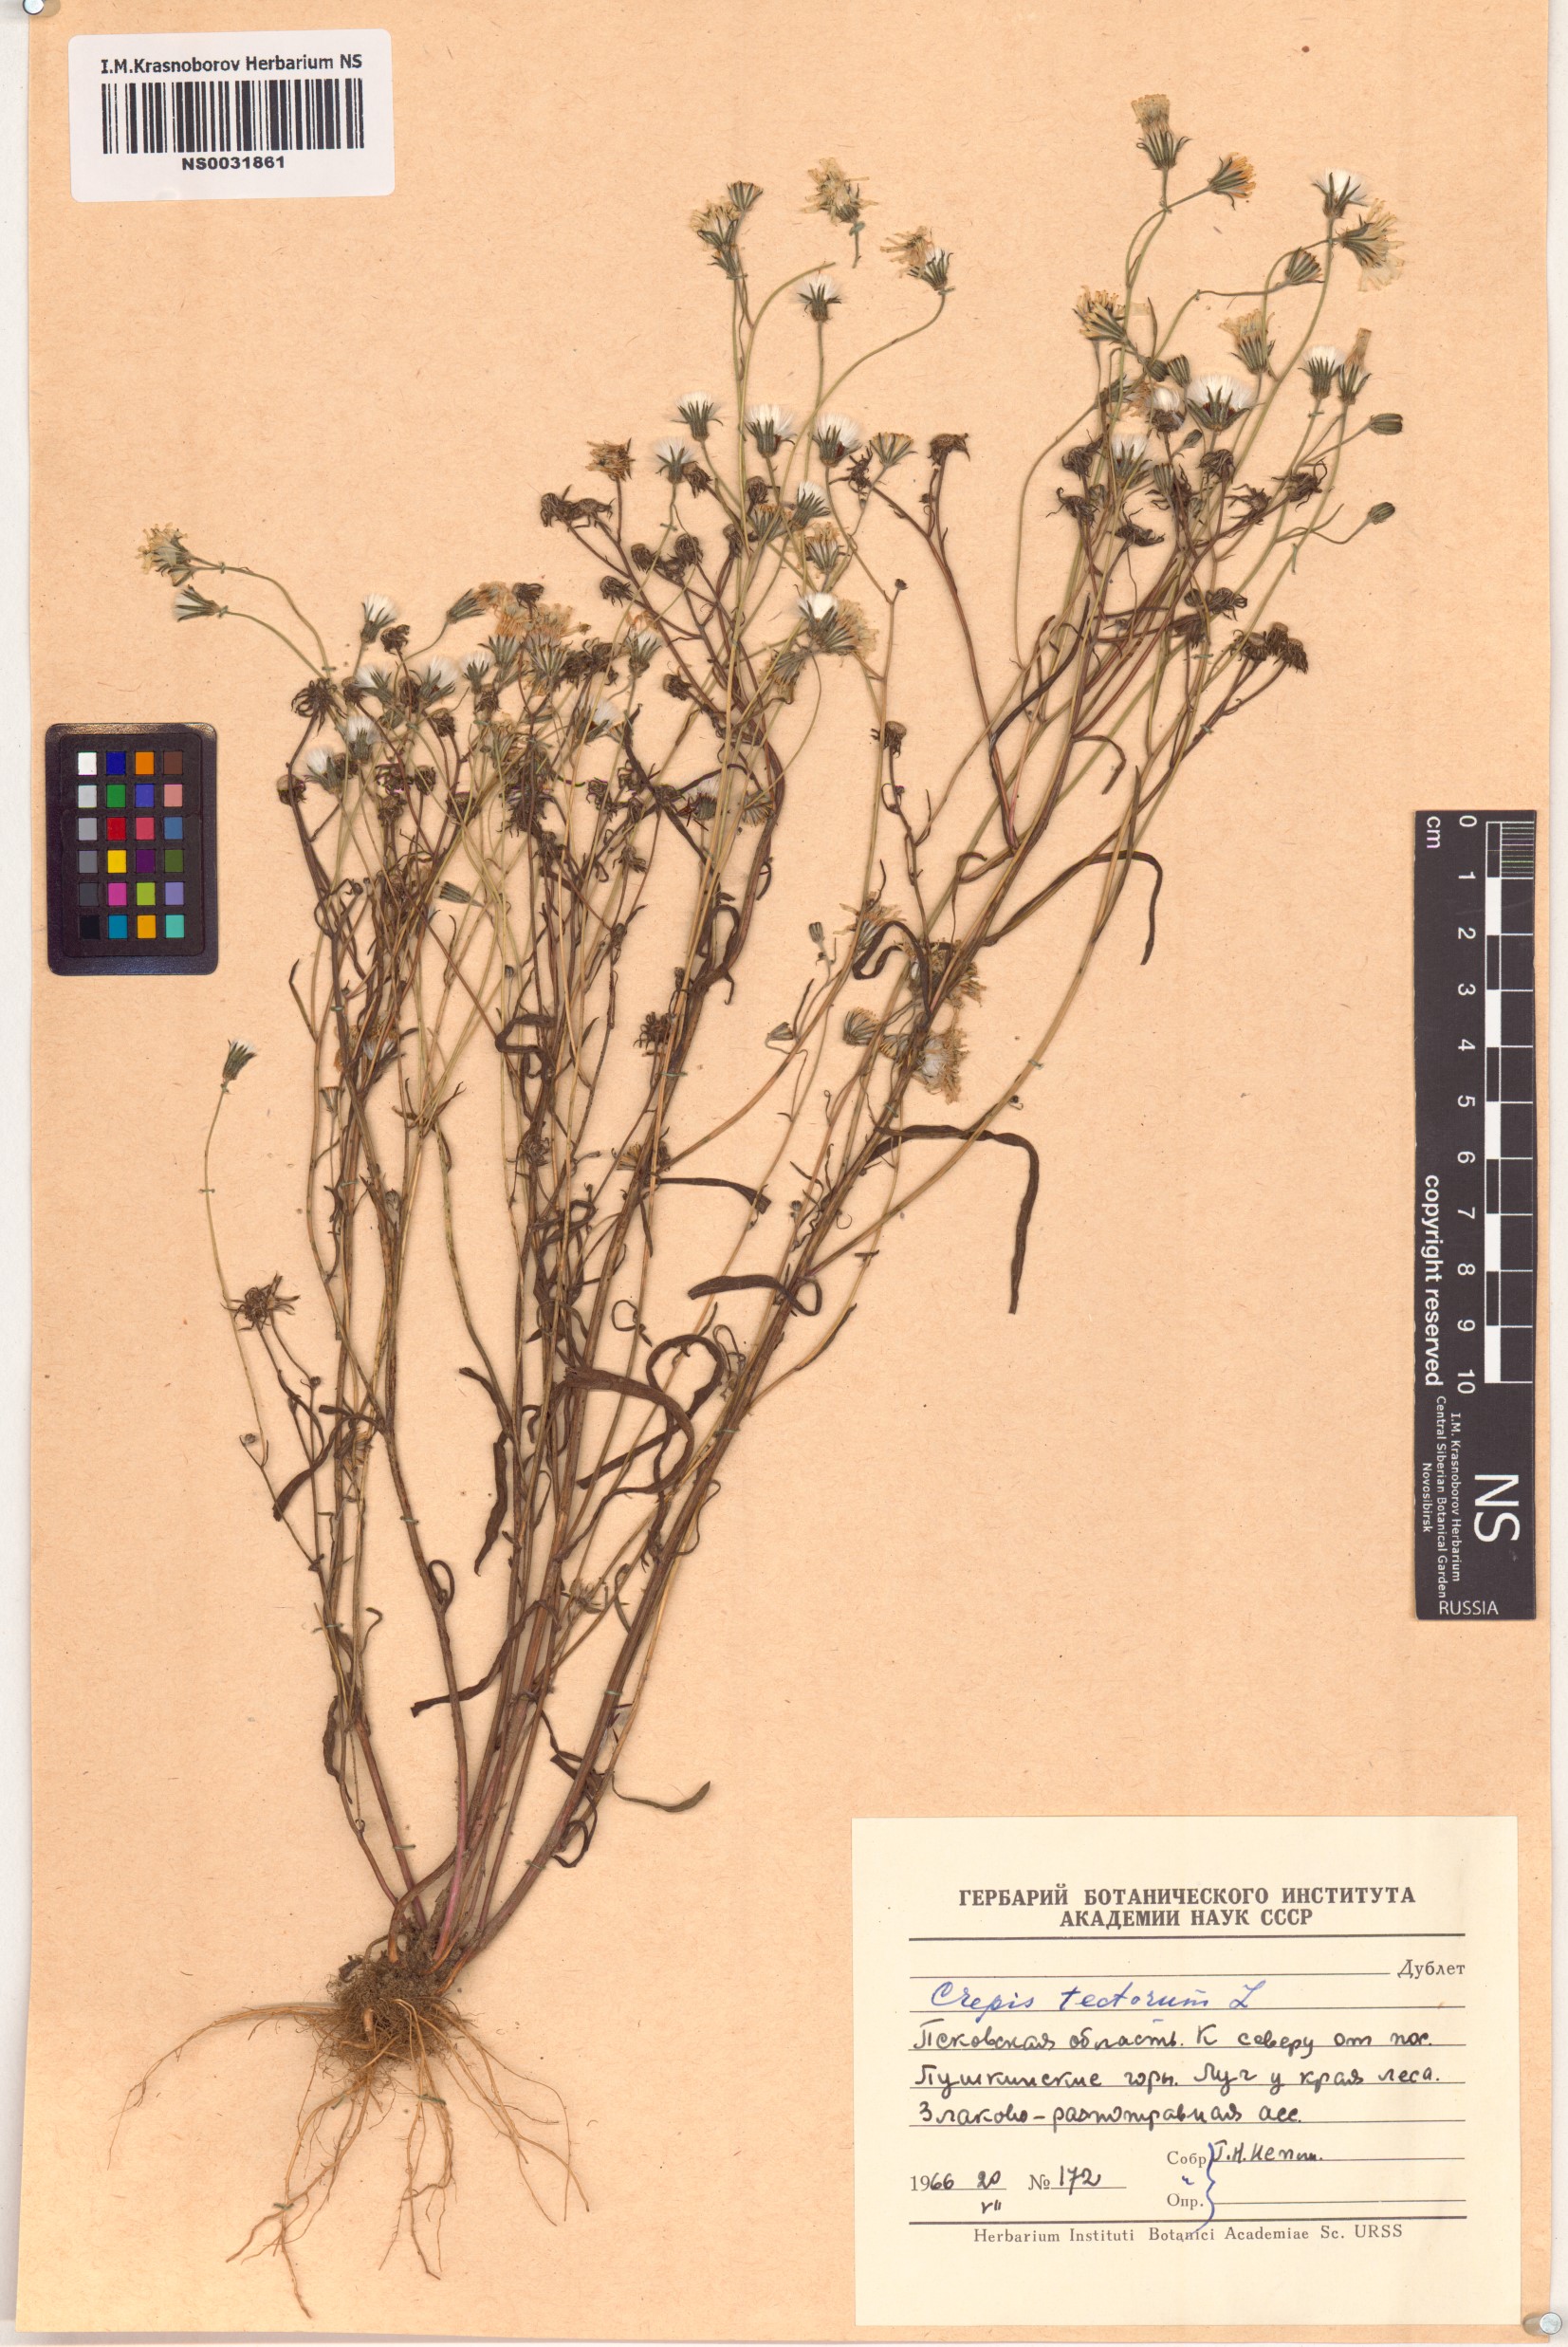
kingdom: Plantae
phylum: Tracheophyta
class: Magnoliopsida
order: Asterales
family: Asteraceae
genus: Crepis
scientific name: Crepis tectorum
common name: Narrow-leaved hawk's-beard
